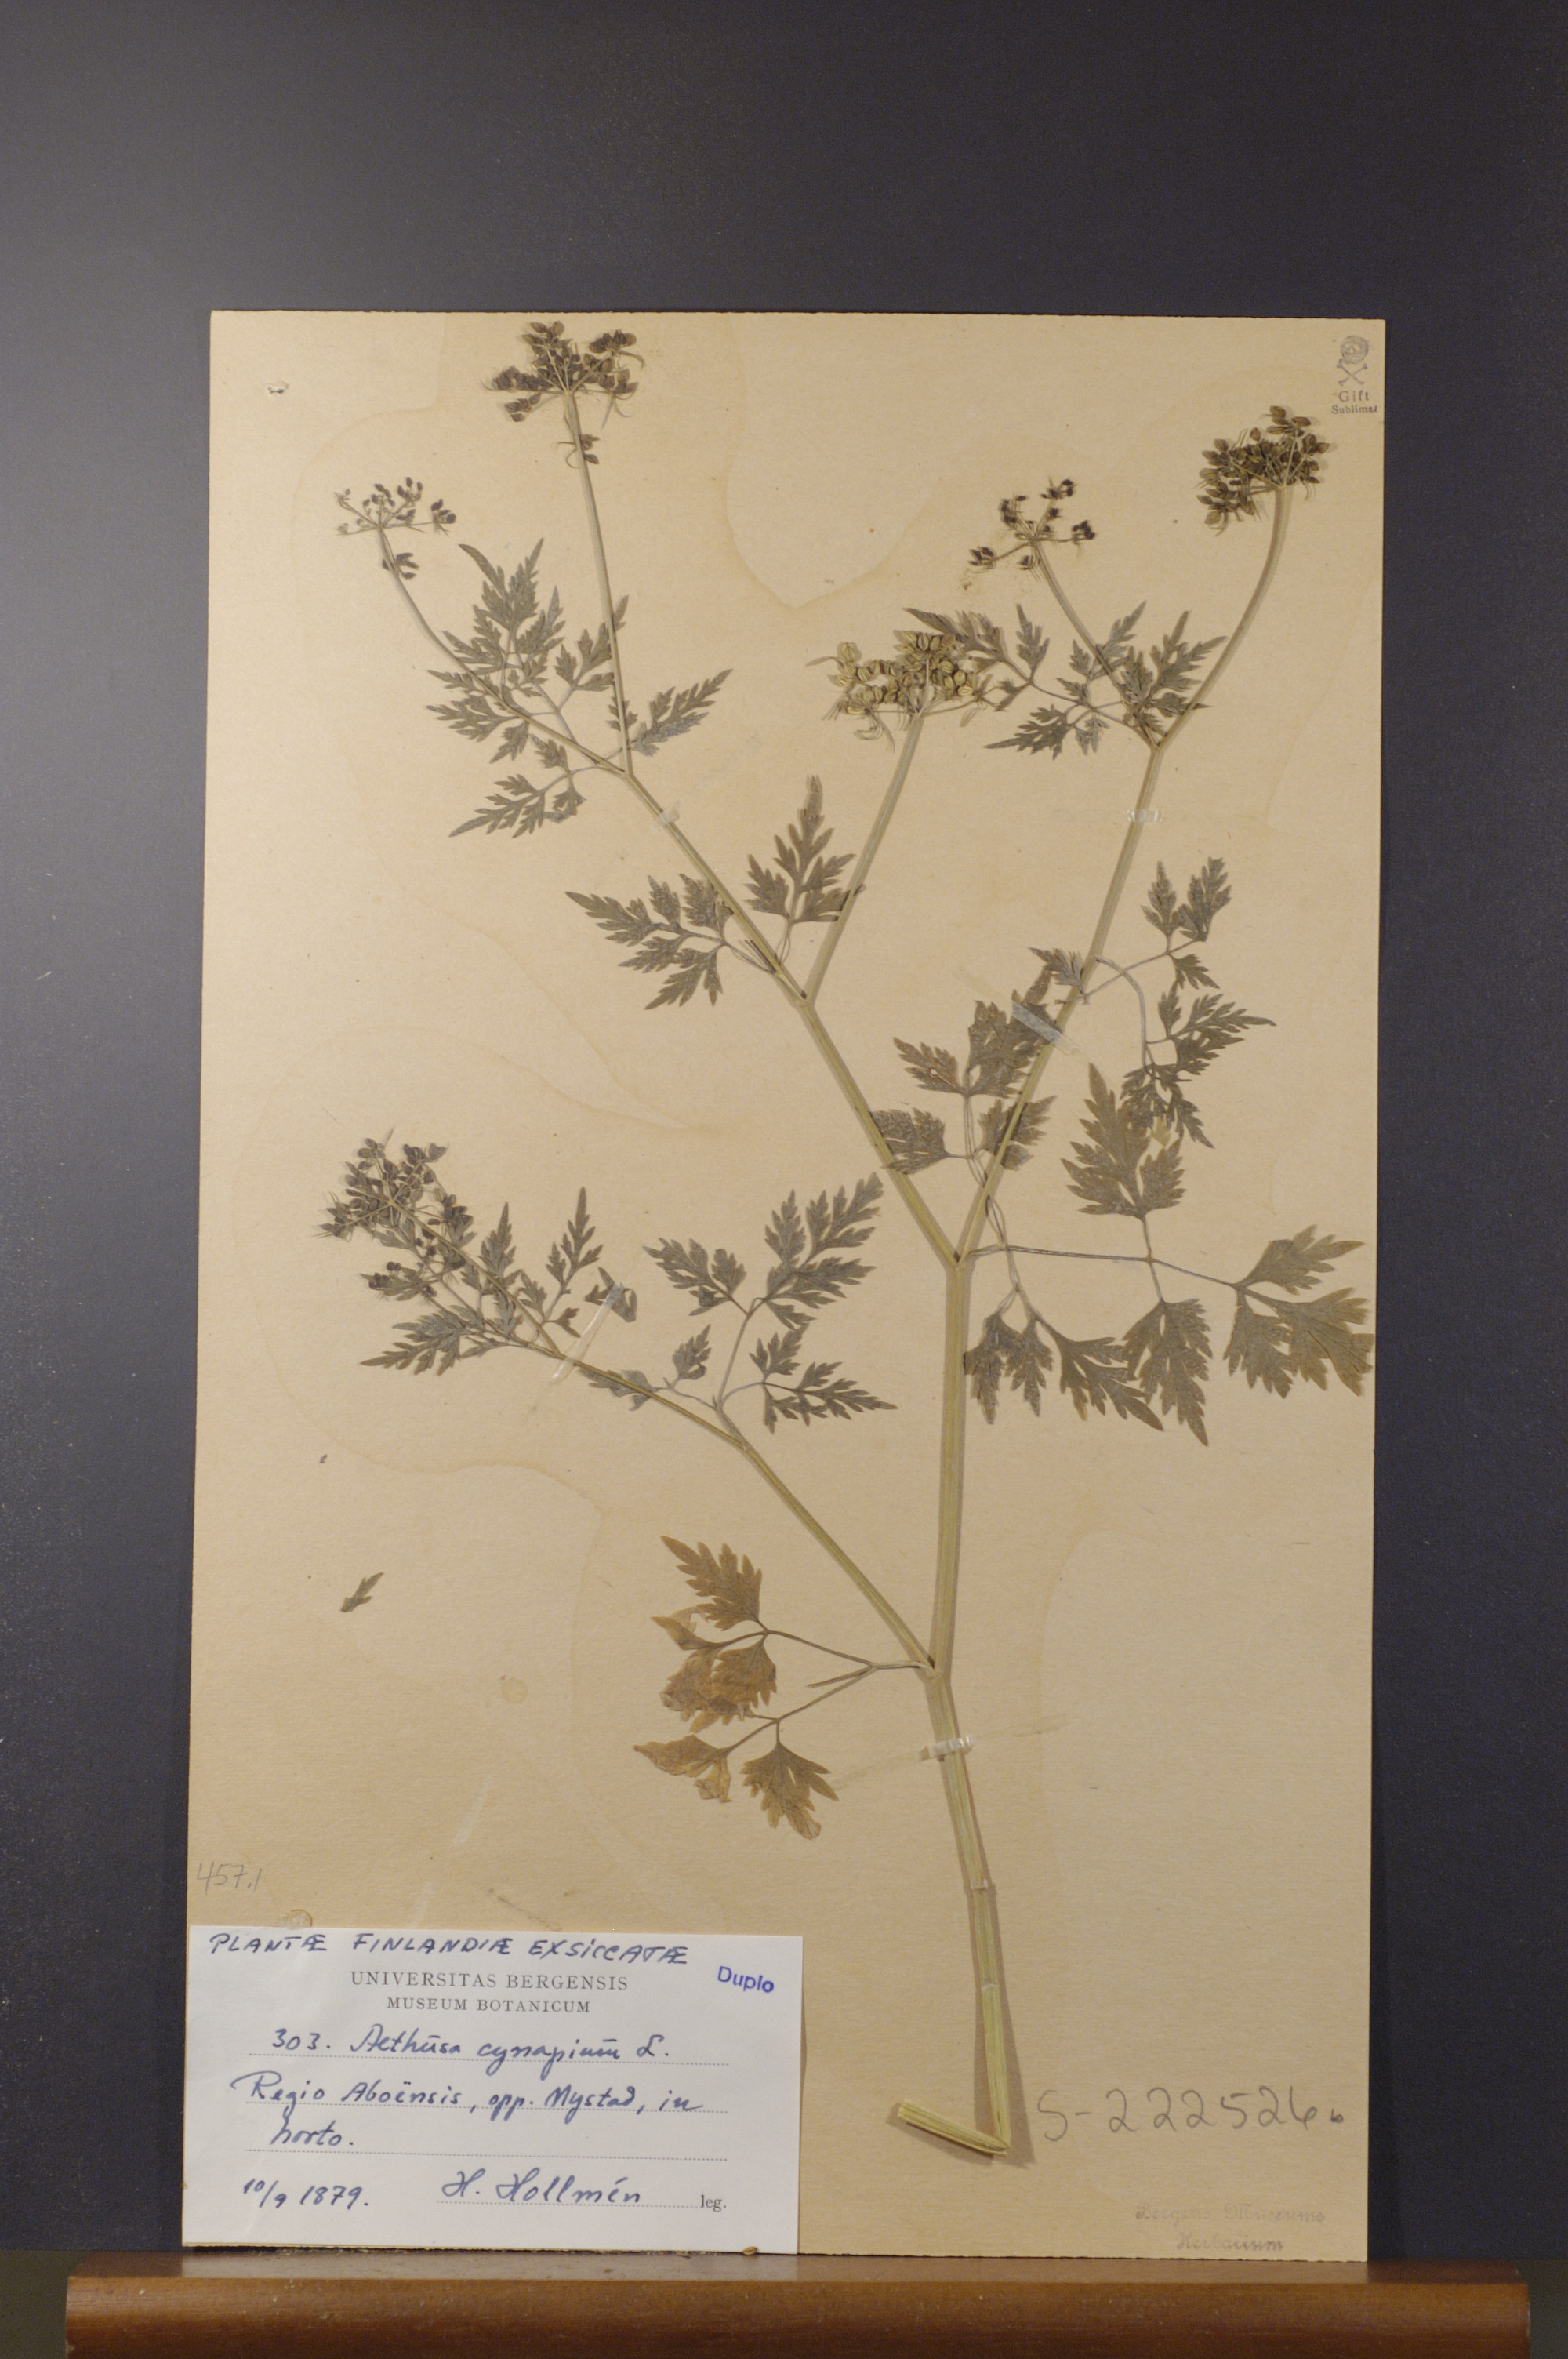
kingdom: Plantae
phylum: Tracheophyta
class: Magnoliopsida
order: Apiales
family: Apiaceae
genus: Aethusa
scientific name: Aethusa cynapium
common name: Fool's parsley
